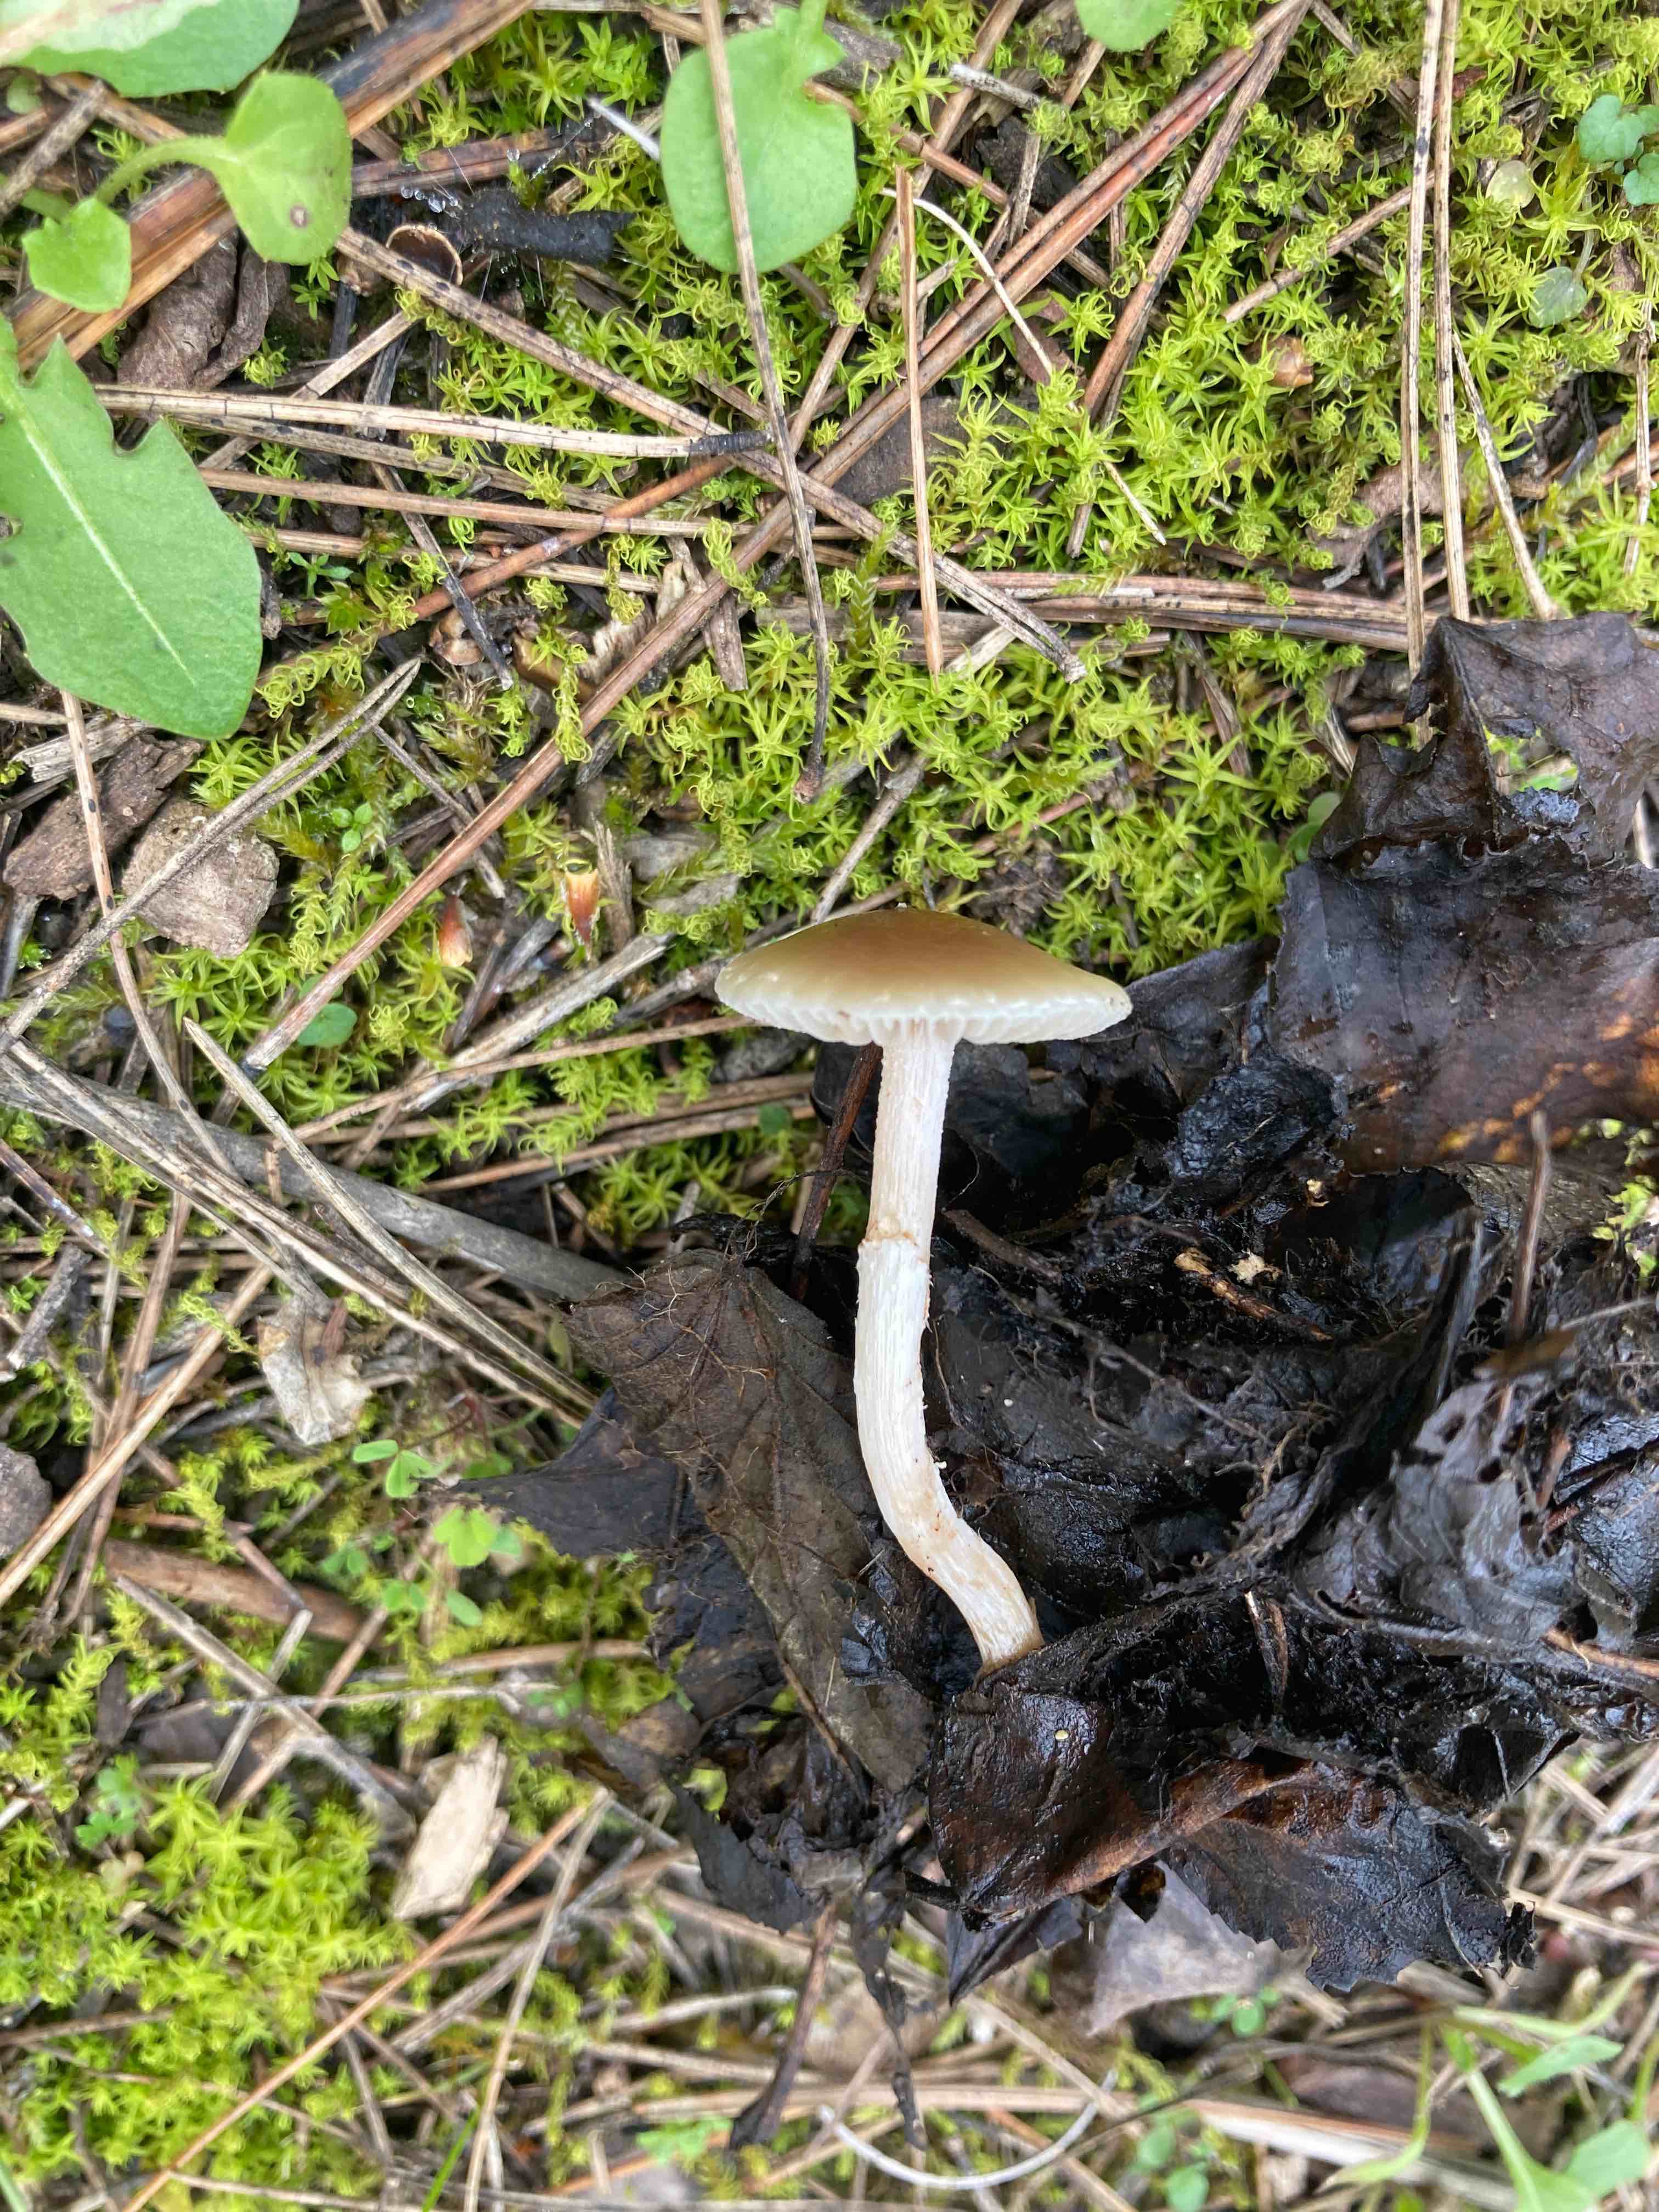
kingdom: Fungi
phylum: Basidiomycota
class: Agaricomycetes
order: Agaricales
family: Strophariaceae
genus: Meottomyces
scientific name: Meottomyces dissimulans
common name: smudsigbrun vinterskælhat
